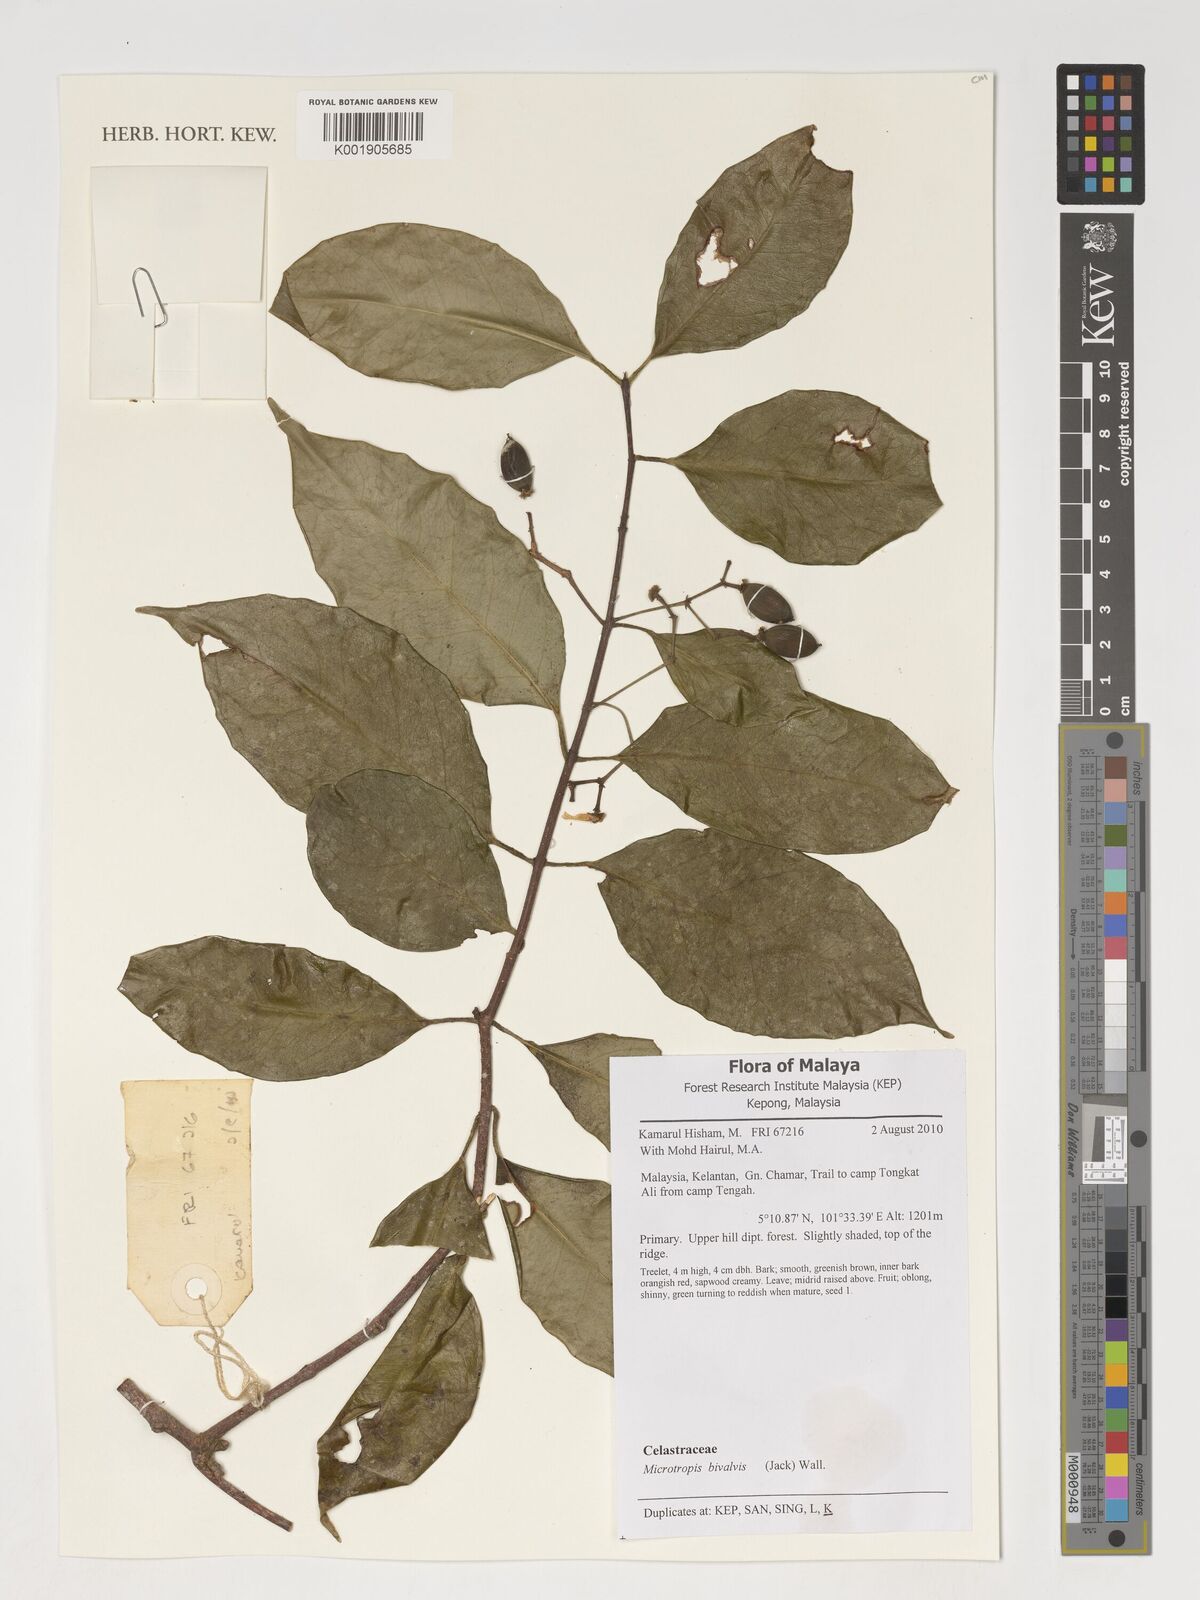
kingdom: Plantae
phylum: Tracheophyta
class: Magnoliopsida
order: Celastrales
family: Celastraceae
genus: Microtropis
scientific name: Microtropis bivalvis
